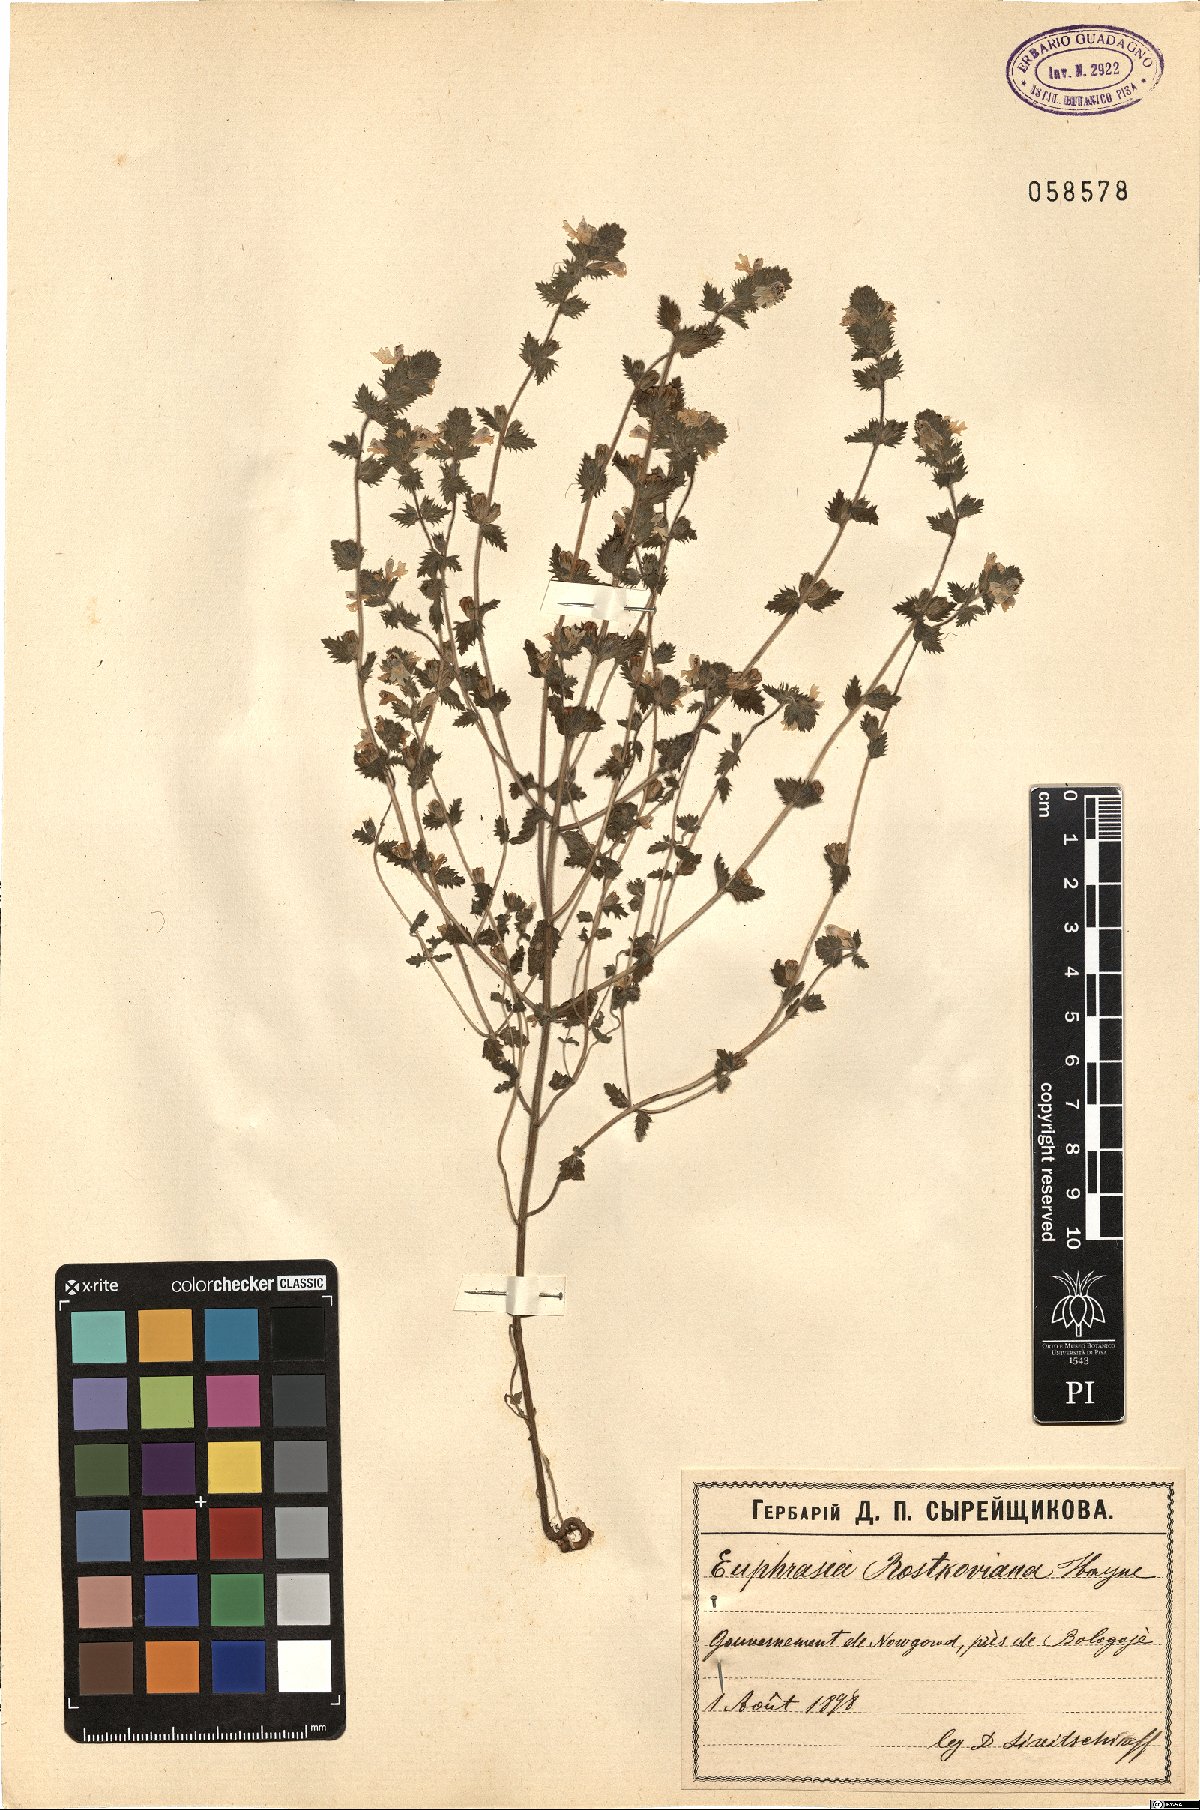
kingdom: Plantae
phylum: Tracheophyta
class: Magnoliopsida
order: Lamiales
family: Orobanchaceae
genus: Euphrasia
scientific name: Euphrasia officinalis
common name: Eyebright
